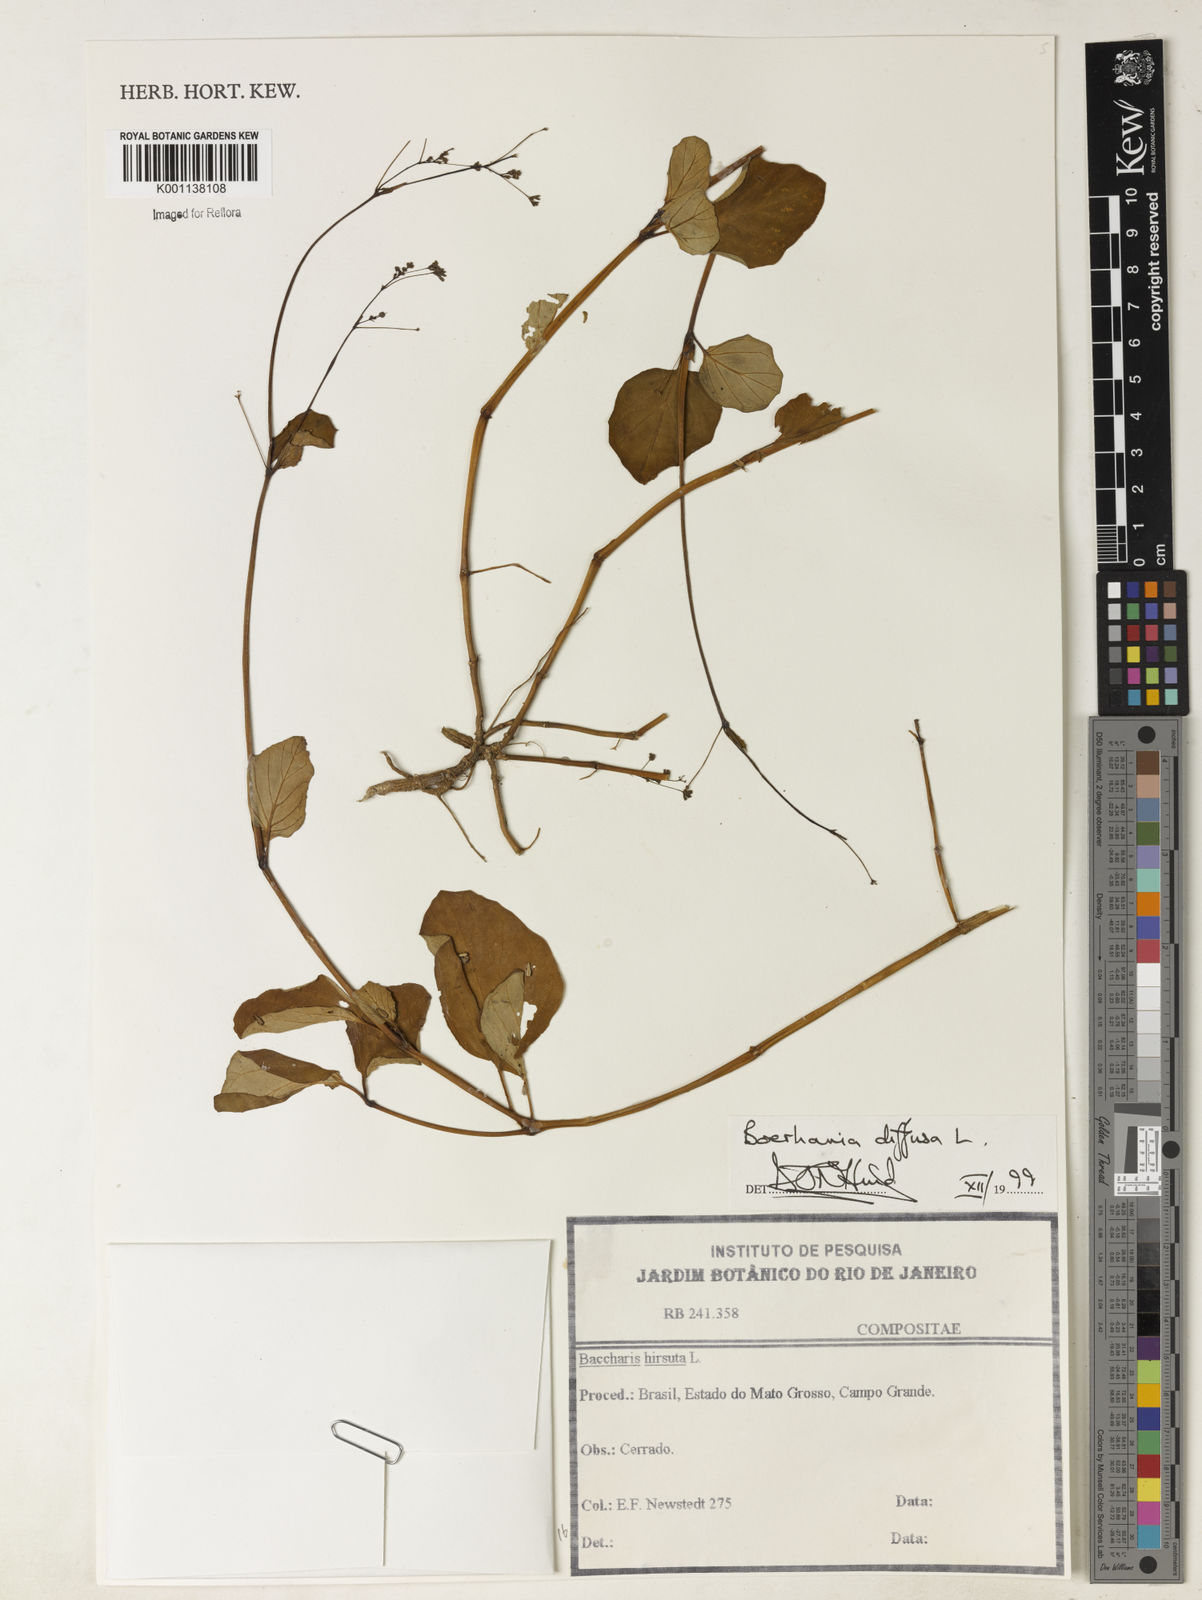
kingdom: Plantae
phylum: Tracheophyta
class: Magnoliopsida
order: Caryophyllales
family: Nyctaginaceae
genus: Boerhavia
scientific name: Boerhavia diffusa
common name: Red spiderling
